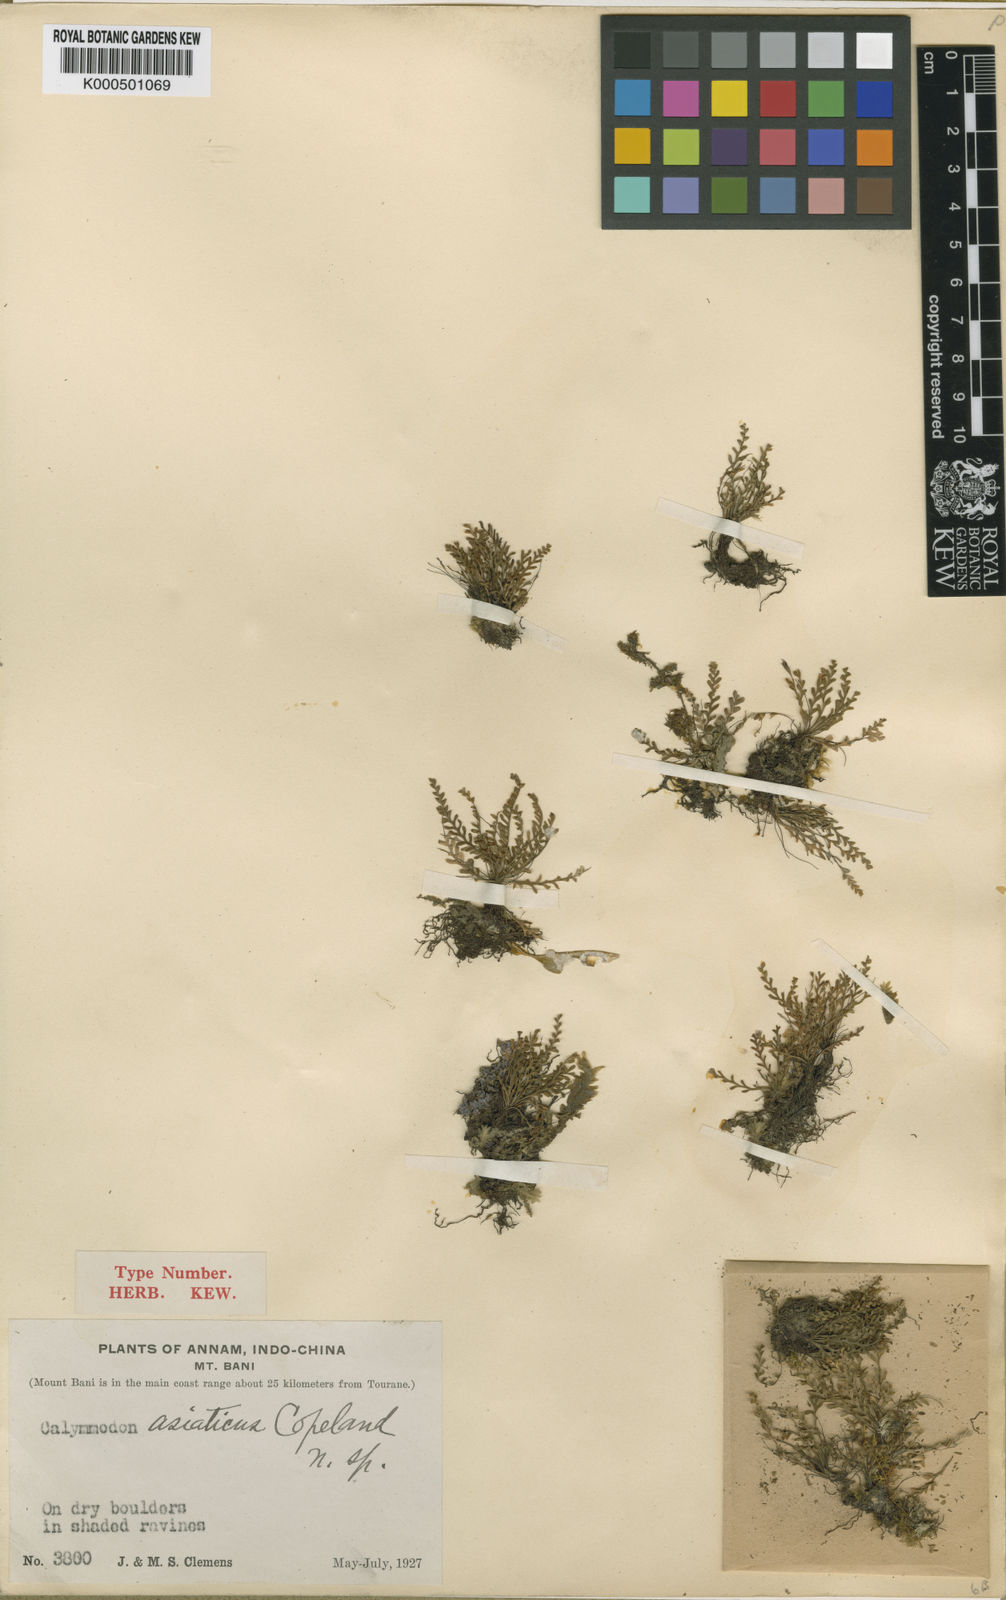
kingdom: Plantae
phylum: Tracheophyta
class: Polypodiopsida
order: Polypodiales
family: Polypodiaceae
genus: Calymmodon
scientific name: Calymmodon asiaticus
